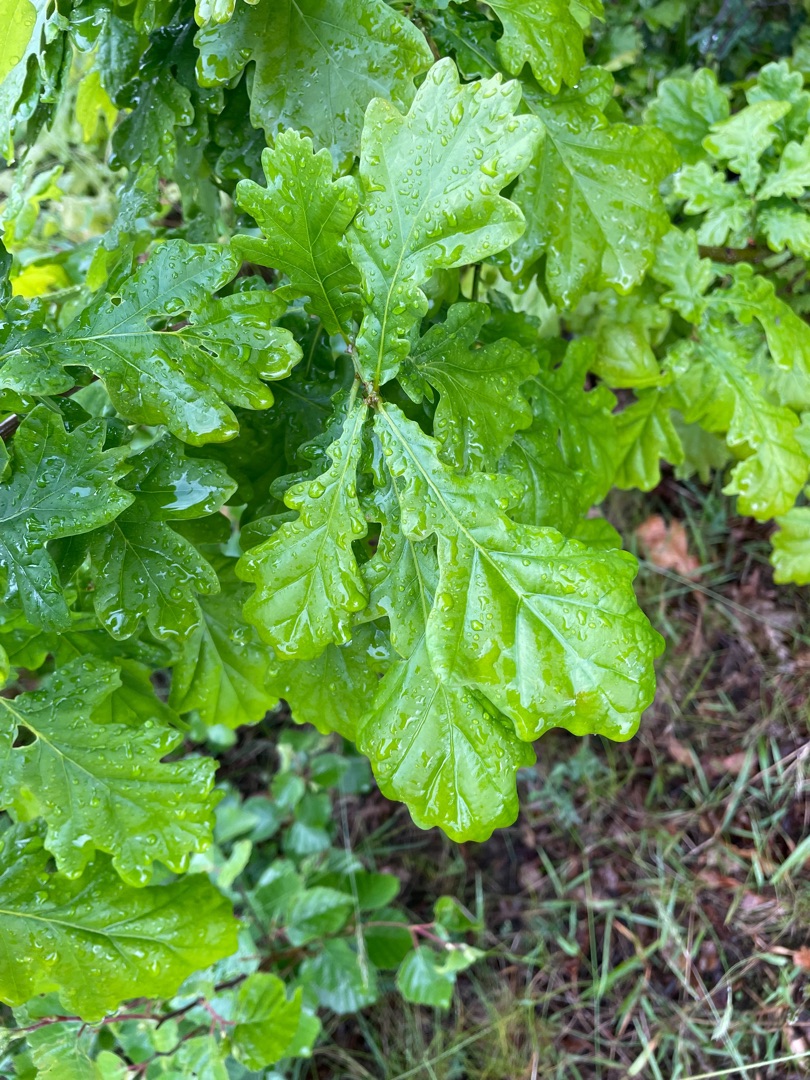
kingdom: Plantae
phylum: Tracheophyta
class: Magnoliopsida
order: Fagales
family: Fagaceae
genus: Quercus
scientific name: Quercus robur
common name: Stilk-eg/almindelig eg
